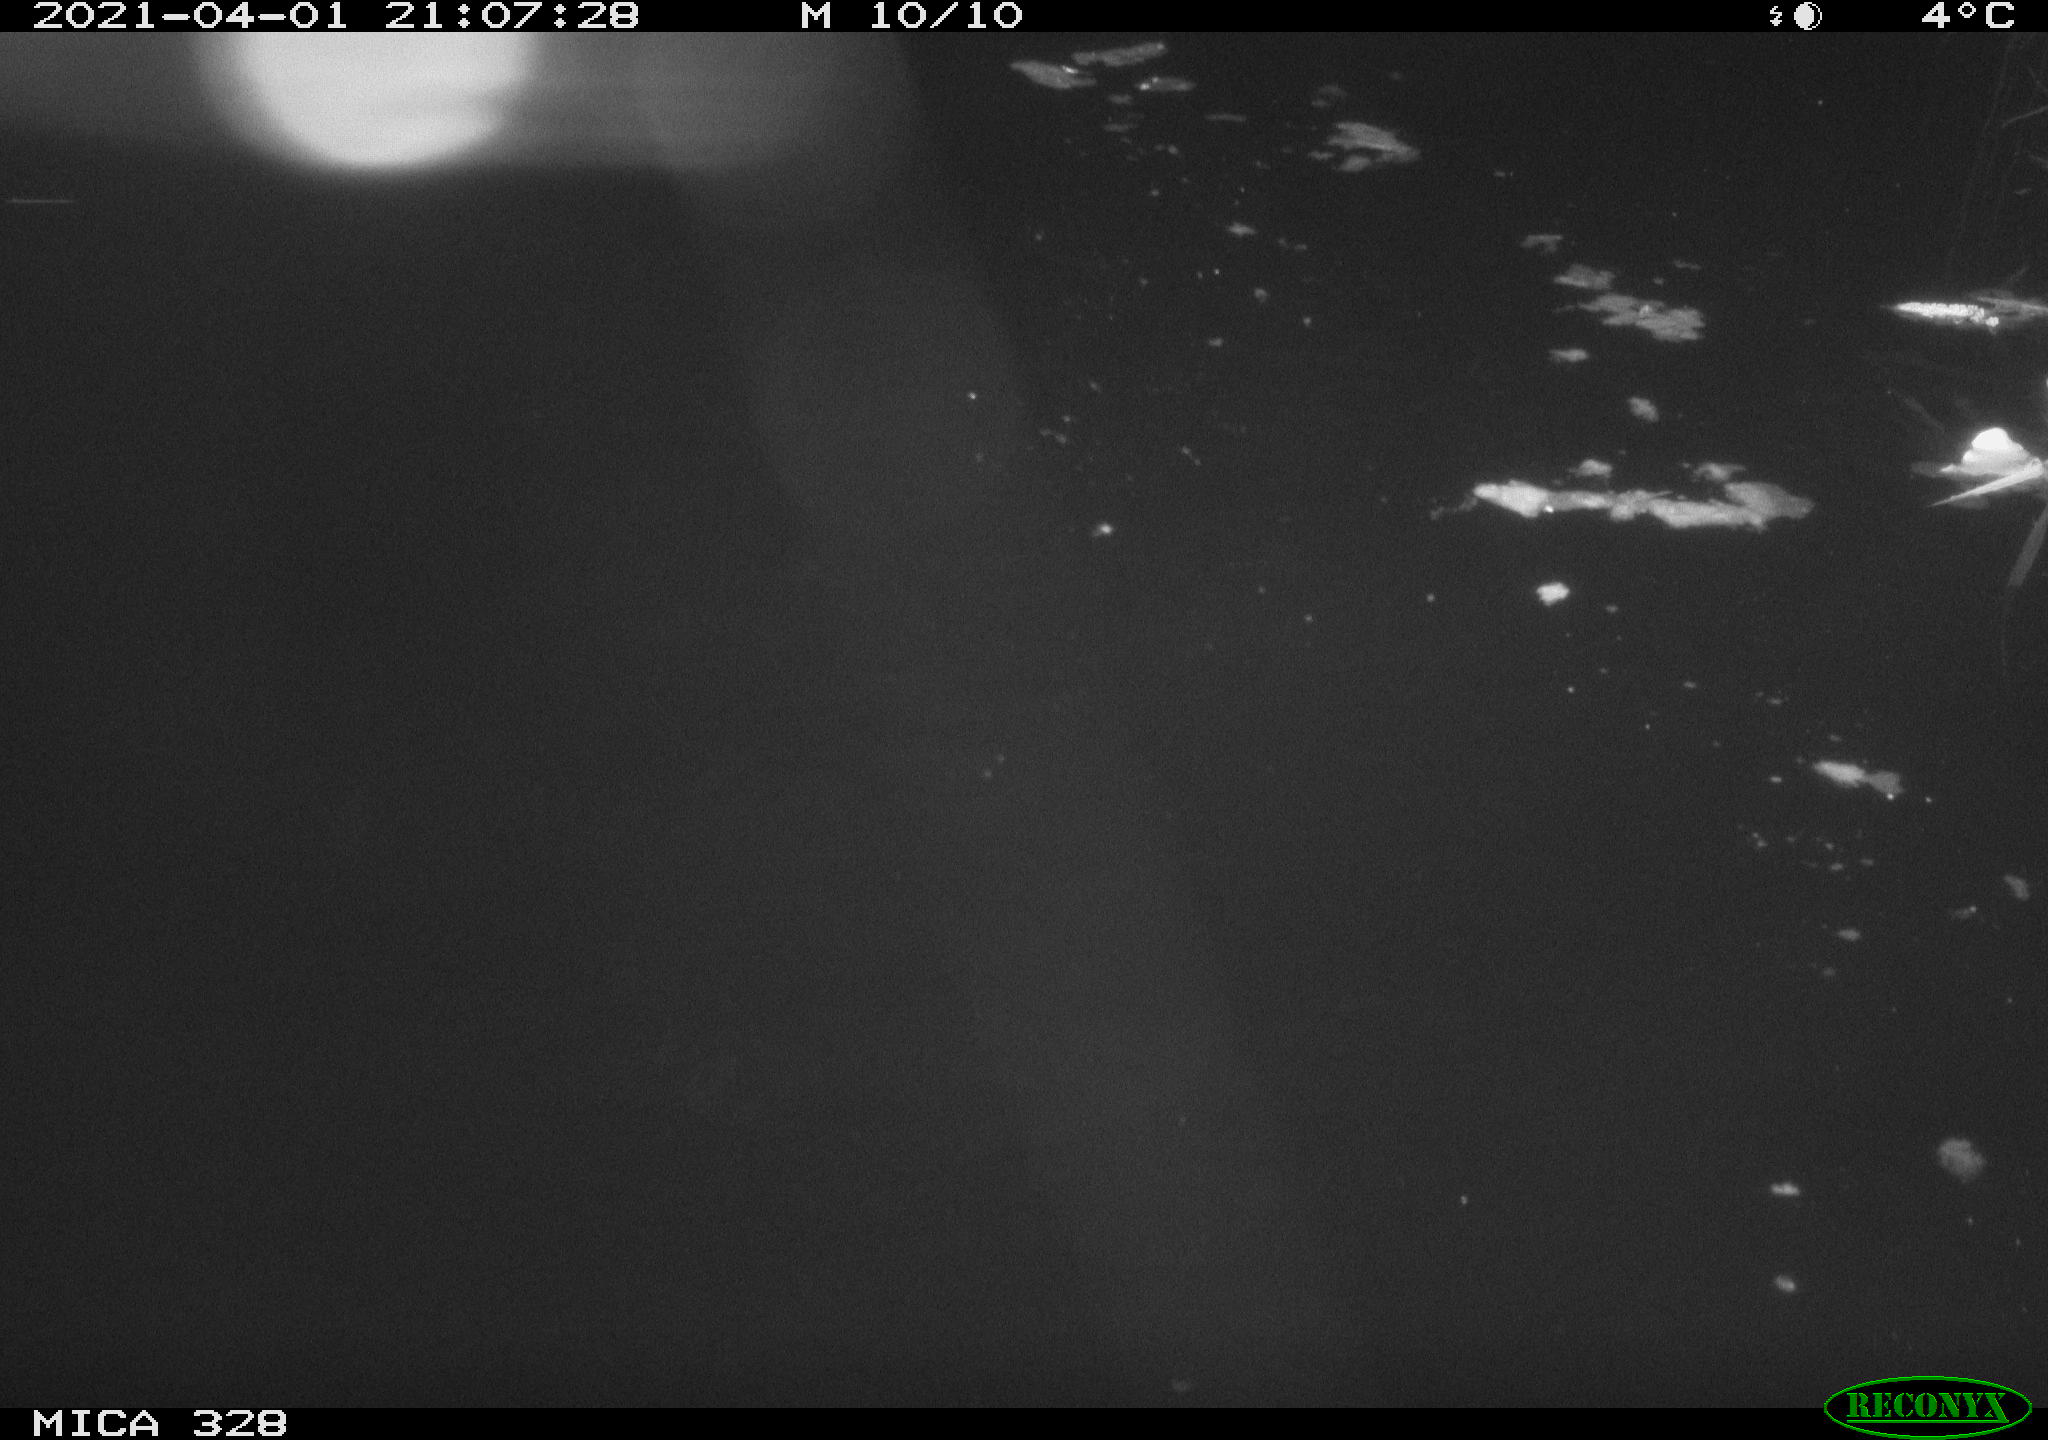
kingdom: Animalia
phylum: Chordata
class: Mammalia
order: Rodentia
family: Cricetidae
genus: Ondatra
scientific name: Ondatra zibethicus
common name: Muskrat
